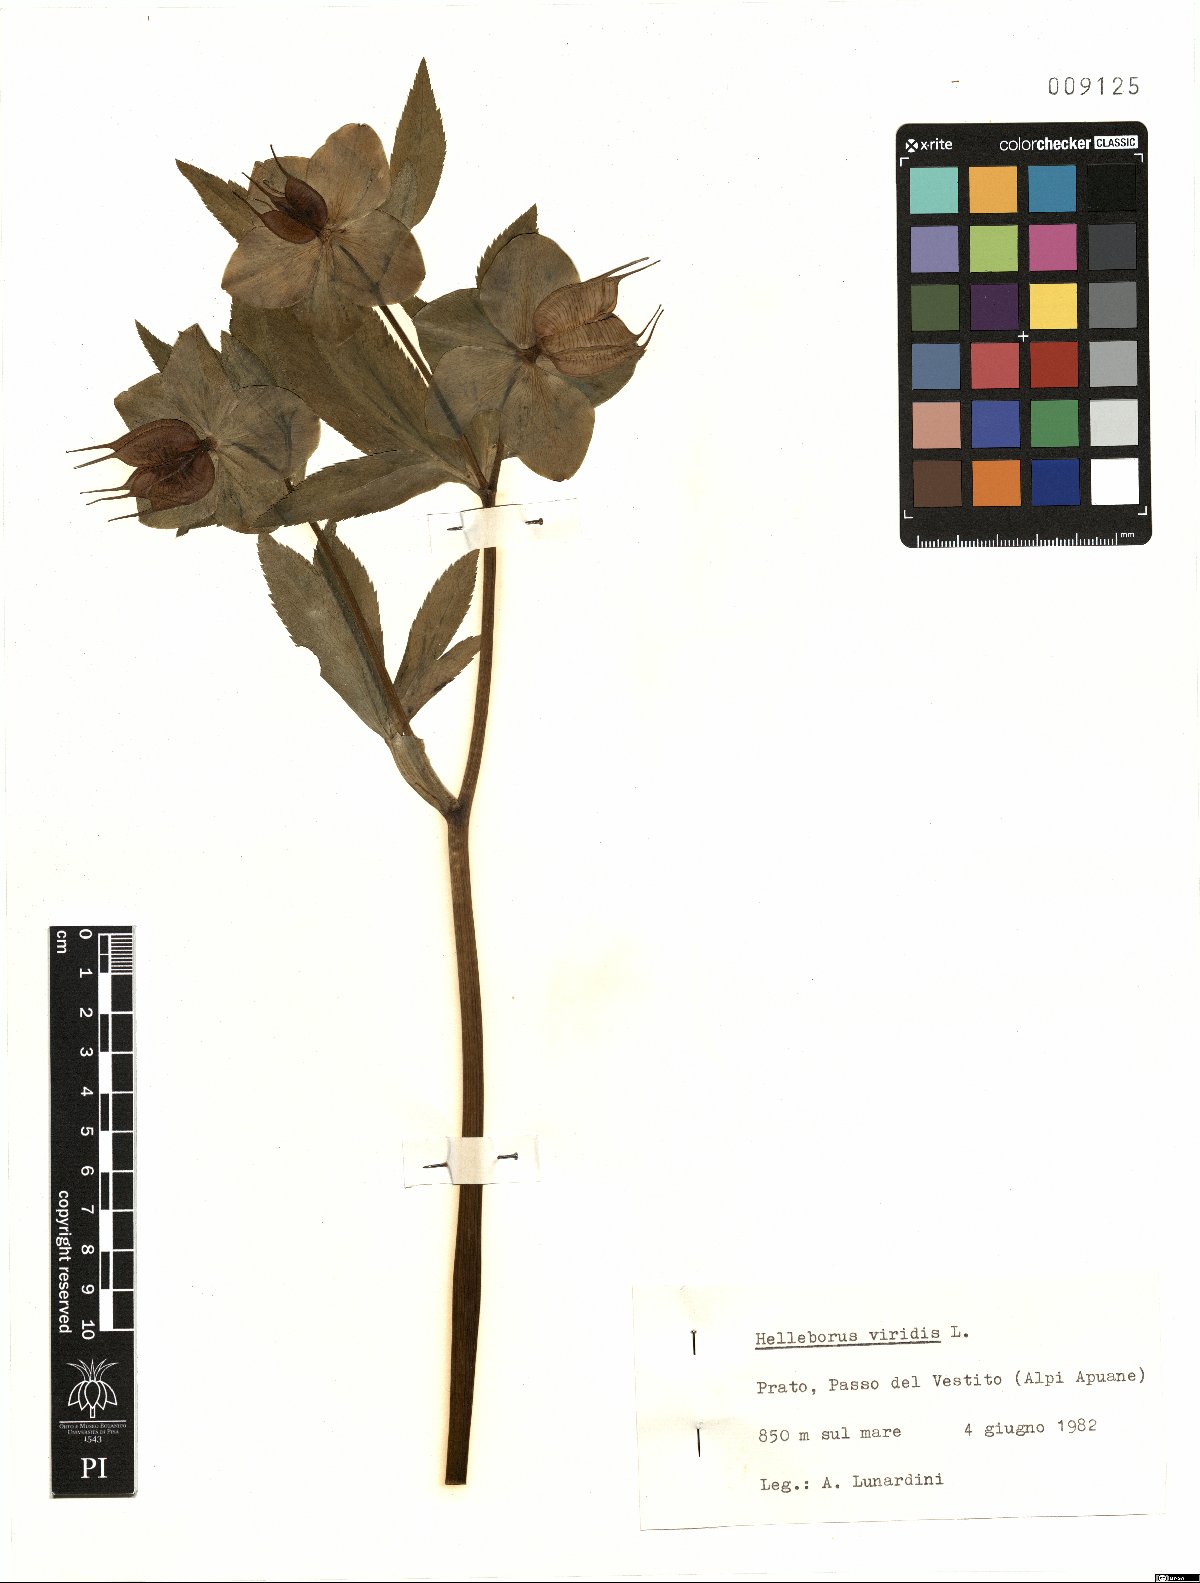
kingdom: Plantae
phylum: Tracheophyta
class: Magnoliopsida
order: Ranunculales
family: Ranunculaceae
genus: Helleborus
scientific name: Helleborus viridis
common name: Green hellebore
